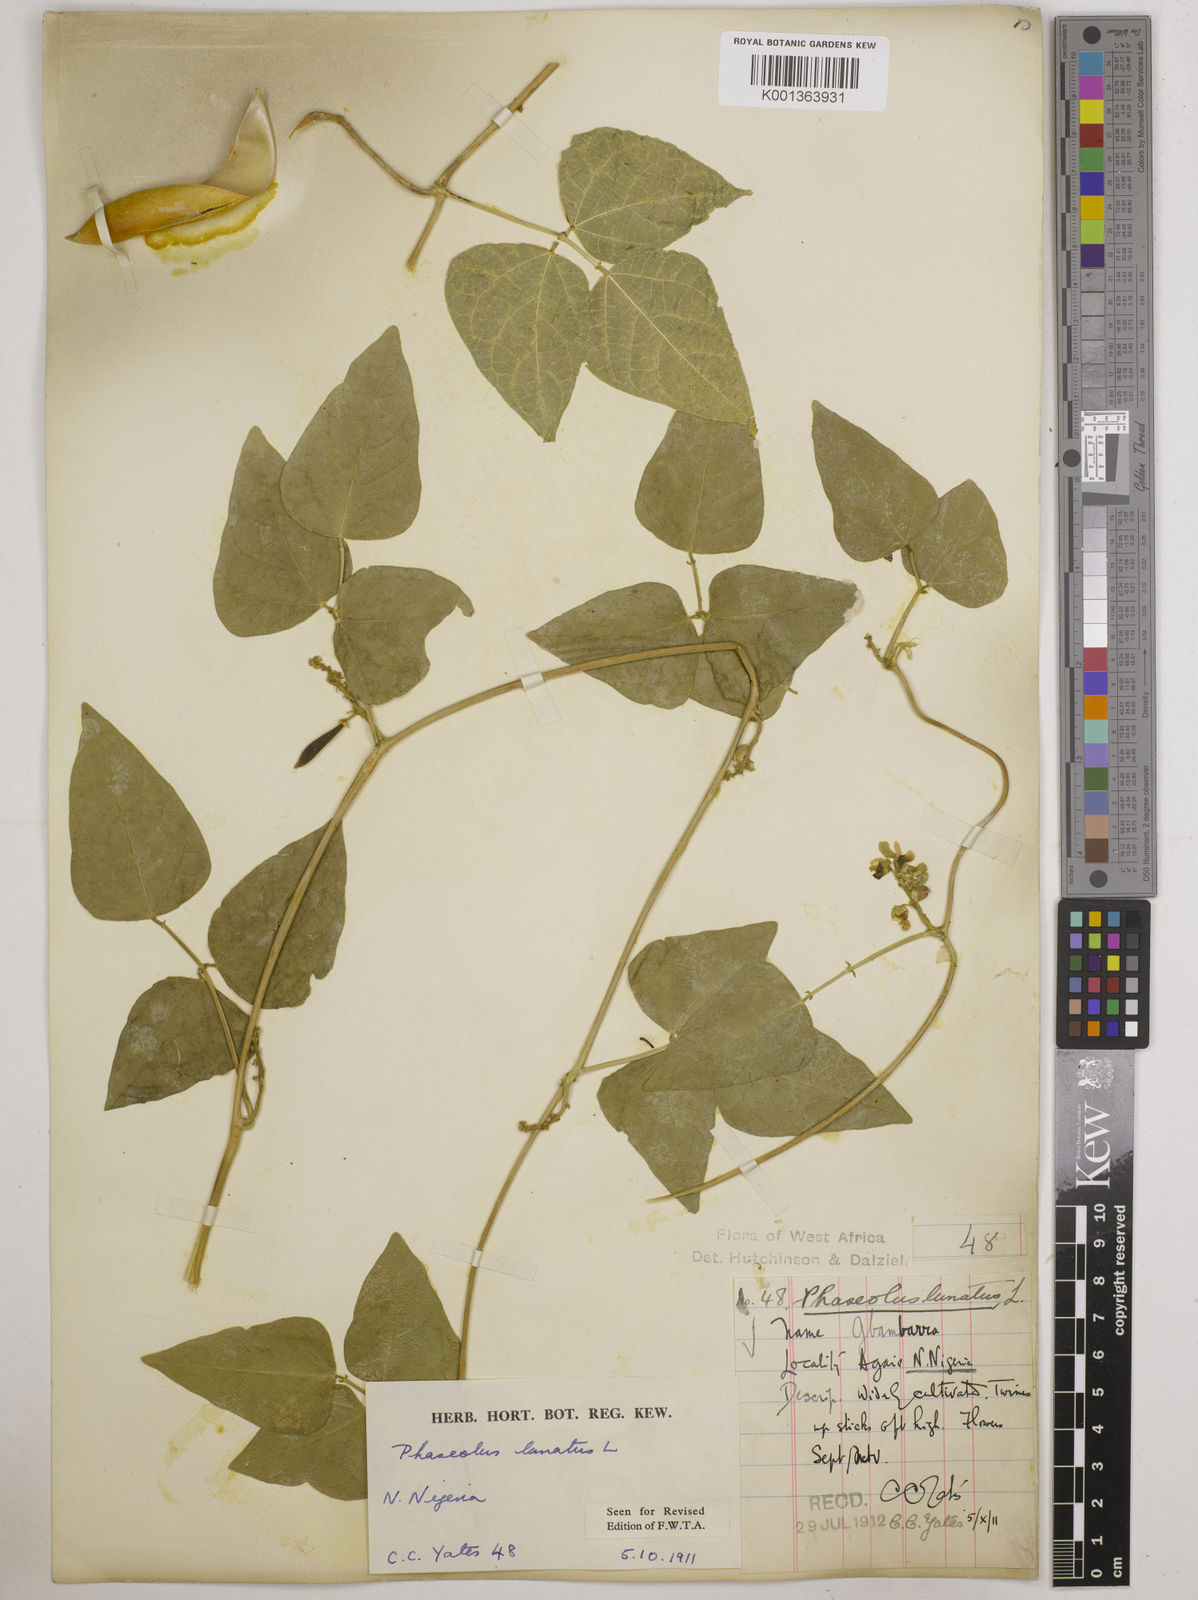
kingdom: Plantae
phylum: Tracheophyta
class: Magnoliopsida
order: Fabales
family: Fabaceae
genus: Phaseolus
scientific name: Phaseolus lunatus
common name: Sieva bean
